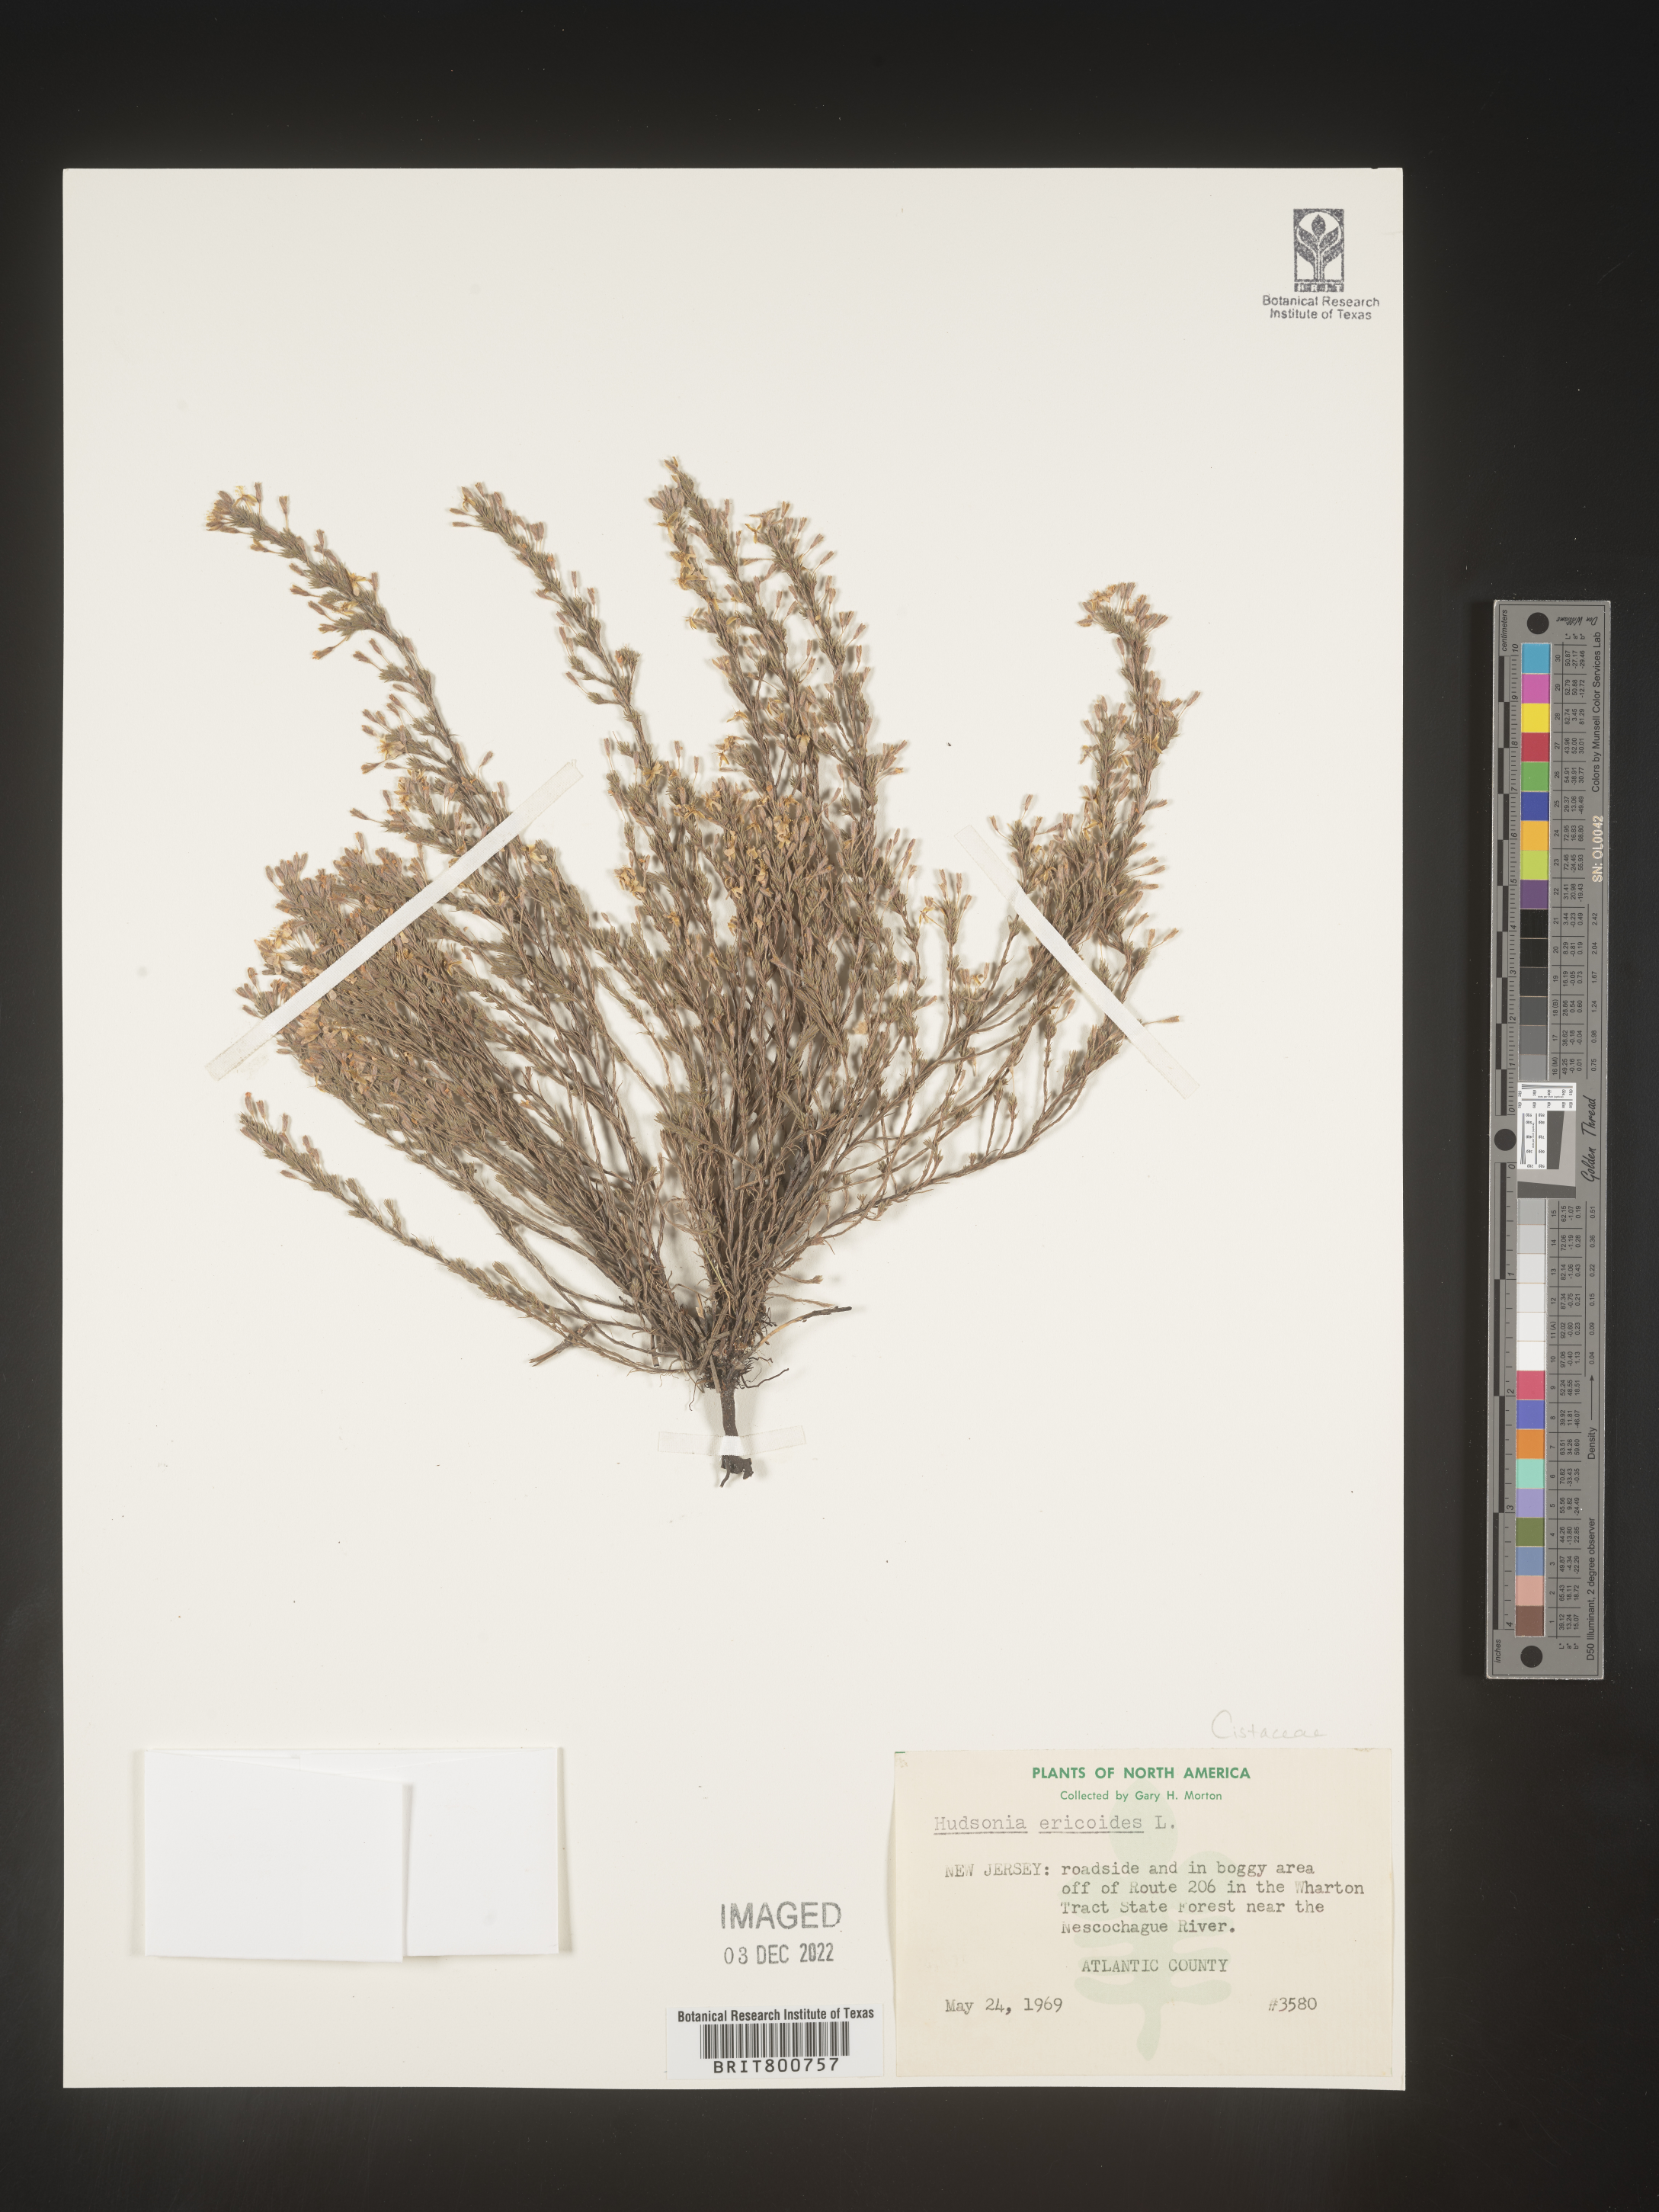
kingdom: Plantae
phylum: Tracheophyta
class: Magnoliopsida
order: Malvales
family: Cistaceae
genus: Hudsonia
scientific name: Hudsonia ericoides
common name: Golden-heather
